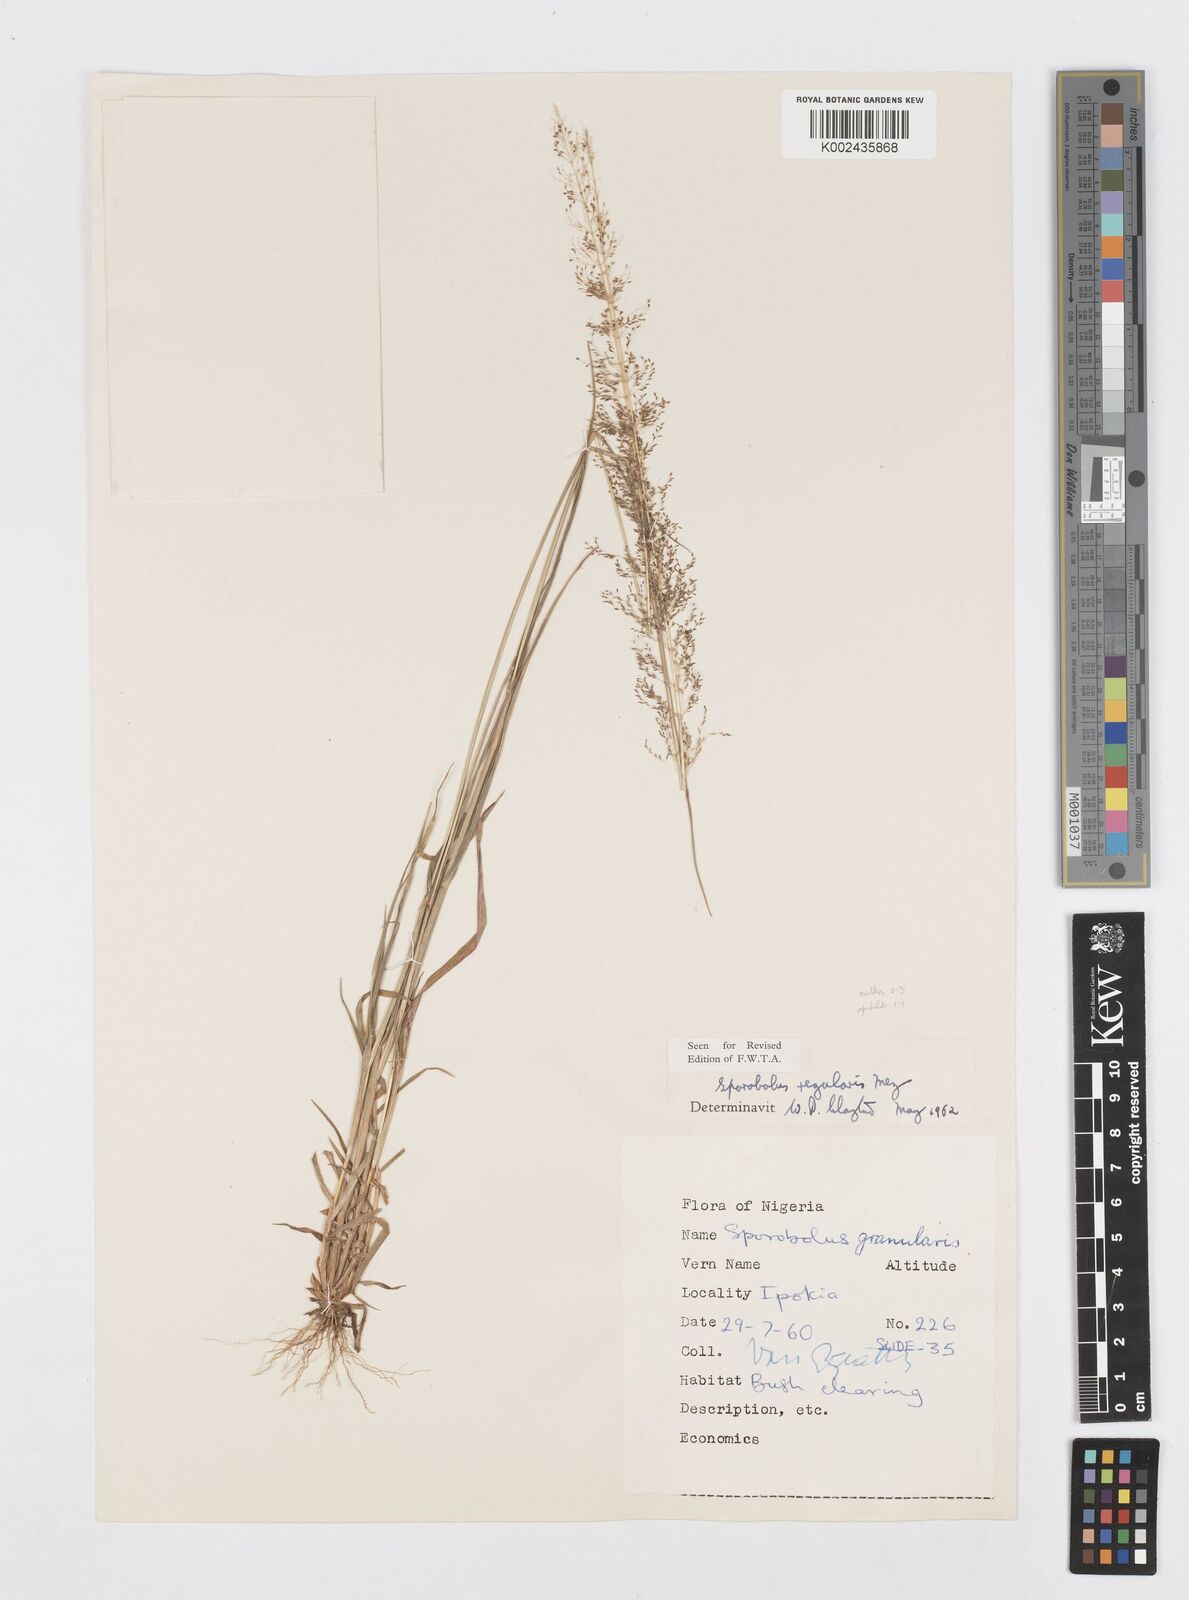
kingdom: Plantae
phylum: Tracheophyta
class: Liliopsida
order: Poales
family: Poaceae
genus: Sporobolus
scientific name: Sporobolus micranthus
